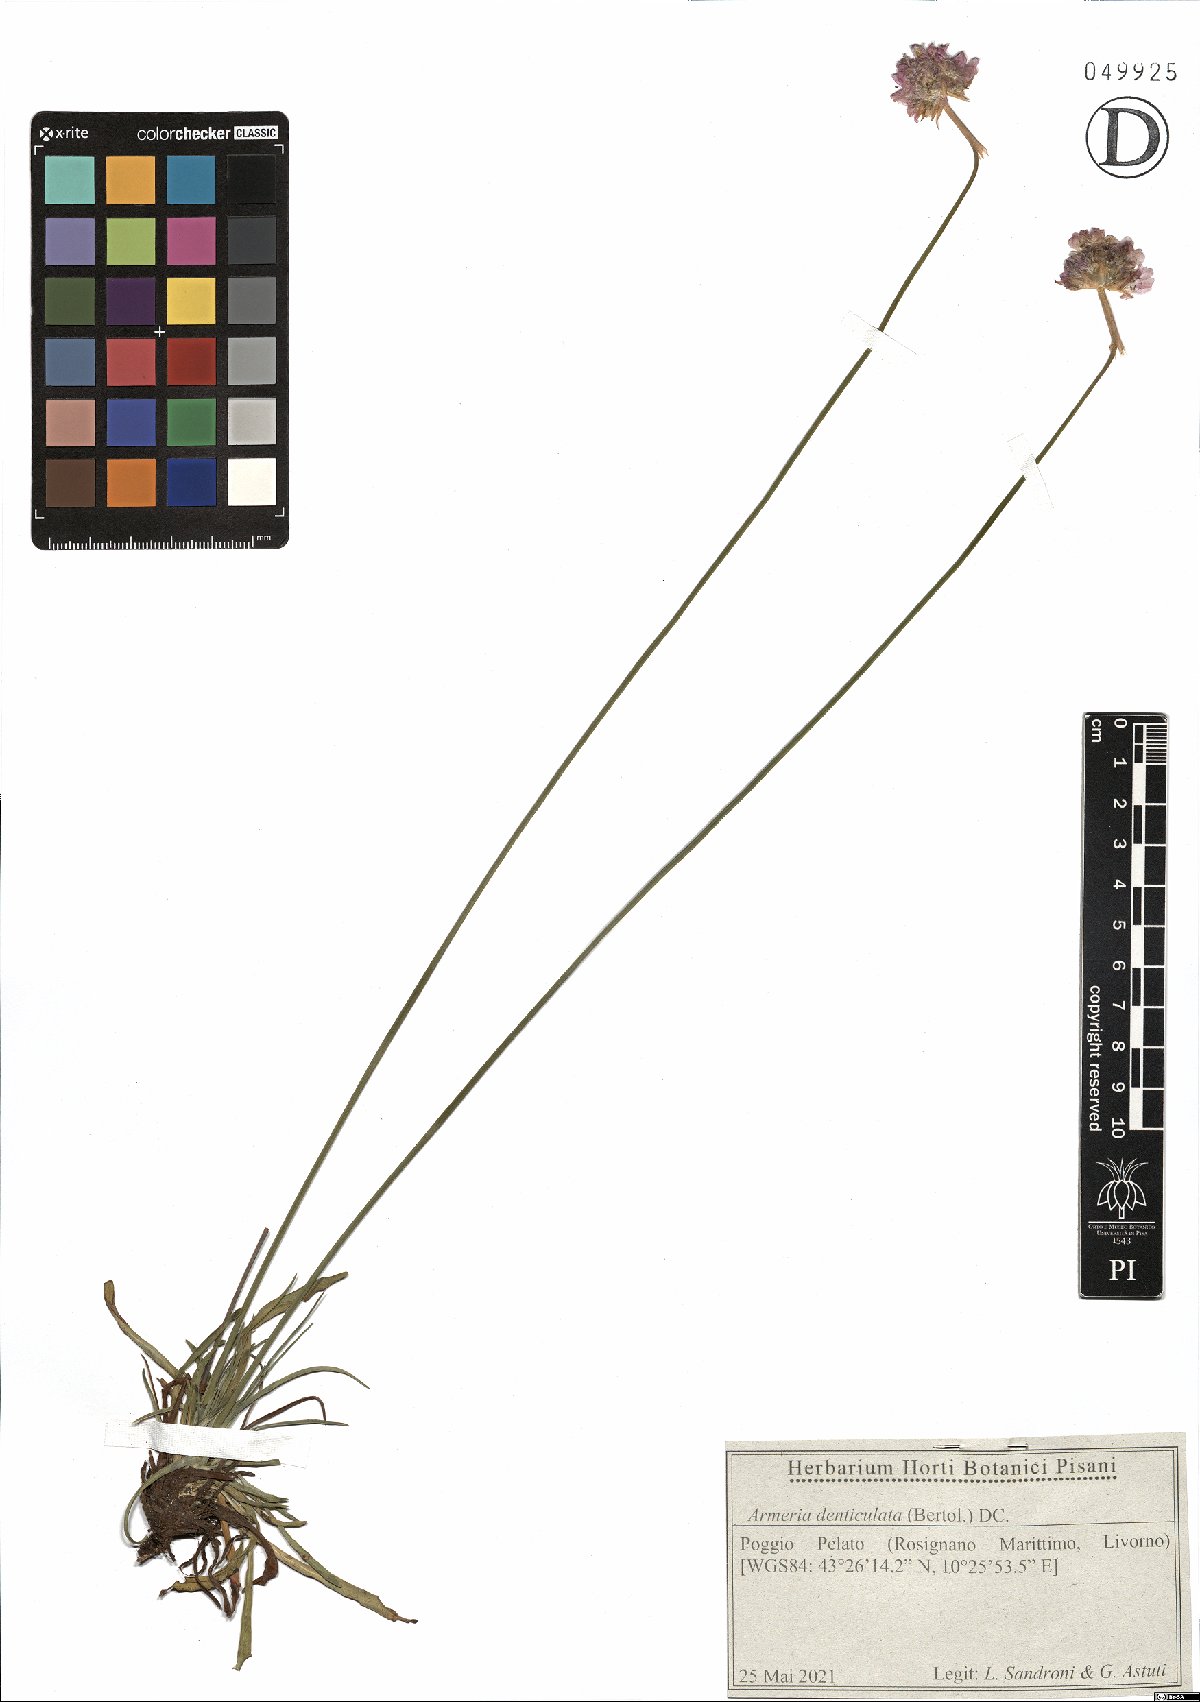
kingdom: Plantae
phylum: Tracheophyta
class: Magnoliopsida
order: Caryophyllales
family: Plumbaginaceae
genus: Armeria
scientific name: Armeria denticulata
